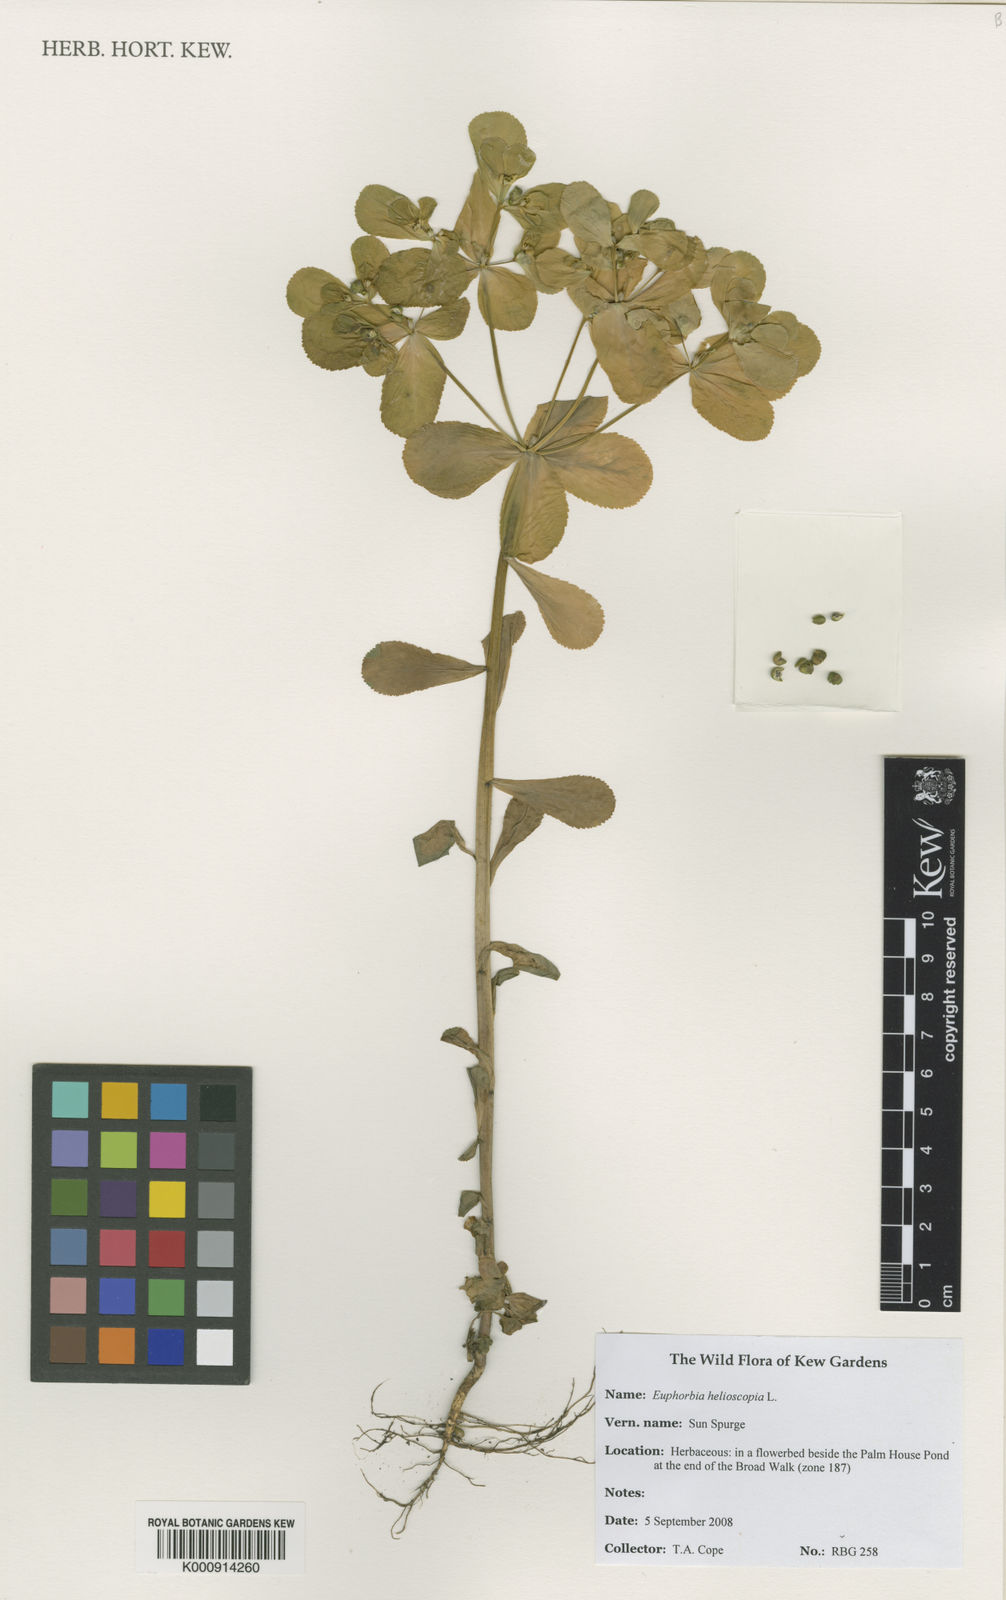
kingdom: Plantae
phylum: Tracheophyta
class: Magnoliopsida
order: Malpighiales
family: Euphorbiaceae
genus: Euphorbia
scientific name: Euphorbia helioscopia
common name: Sun spurge
